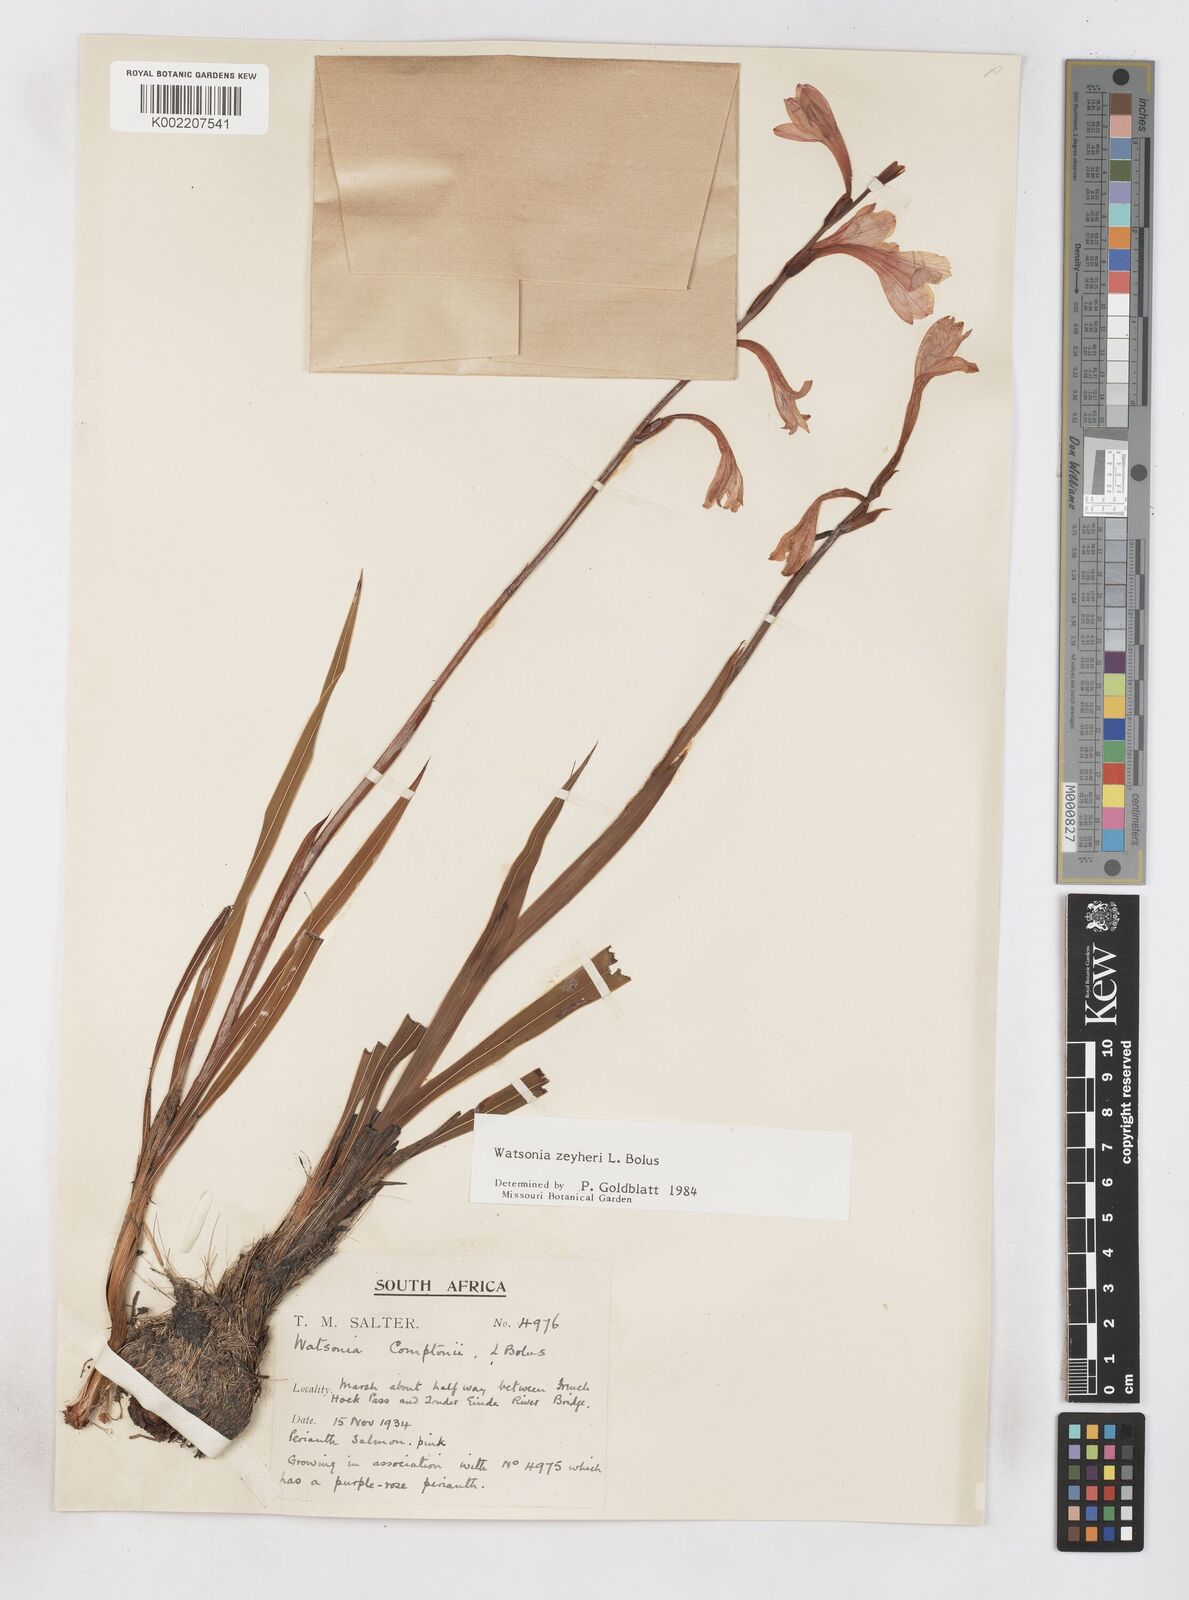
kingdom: Plantae
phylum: Tracheophyta
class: Liliopsida
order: Asparagales
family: Iridaceae
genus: Watsonia
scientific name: Watsonia zeyheri
